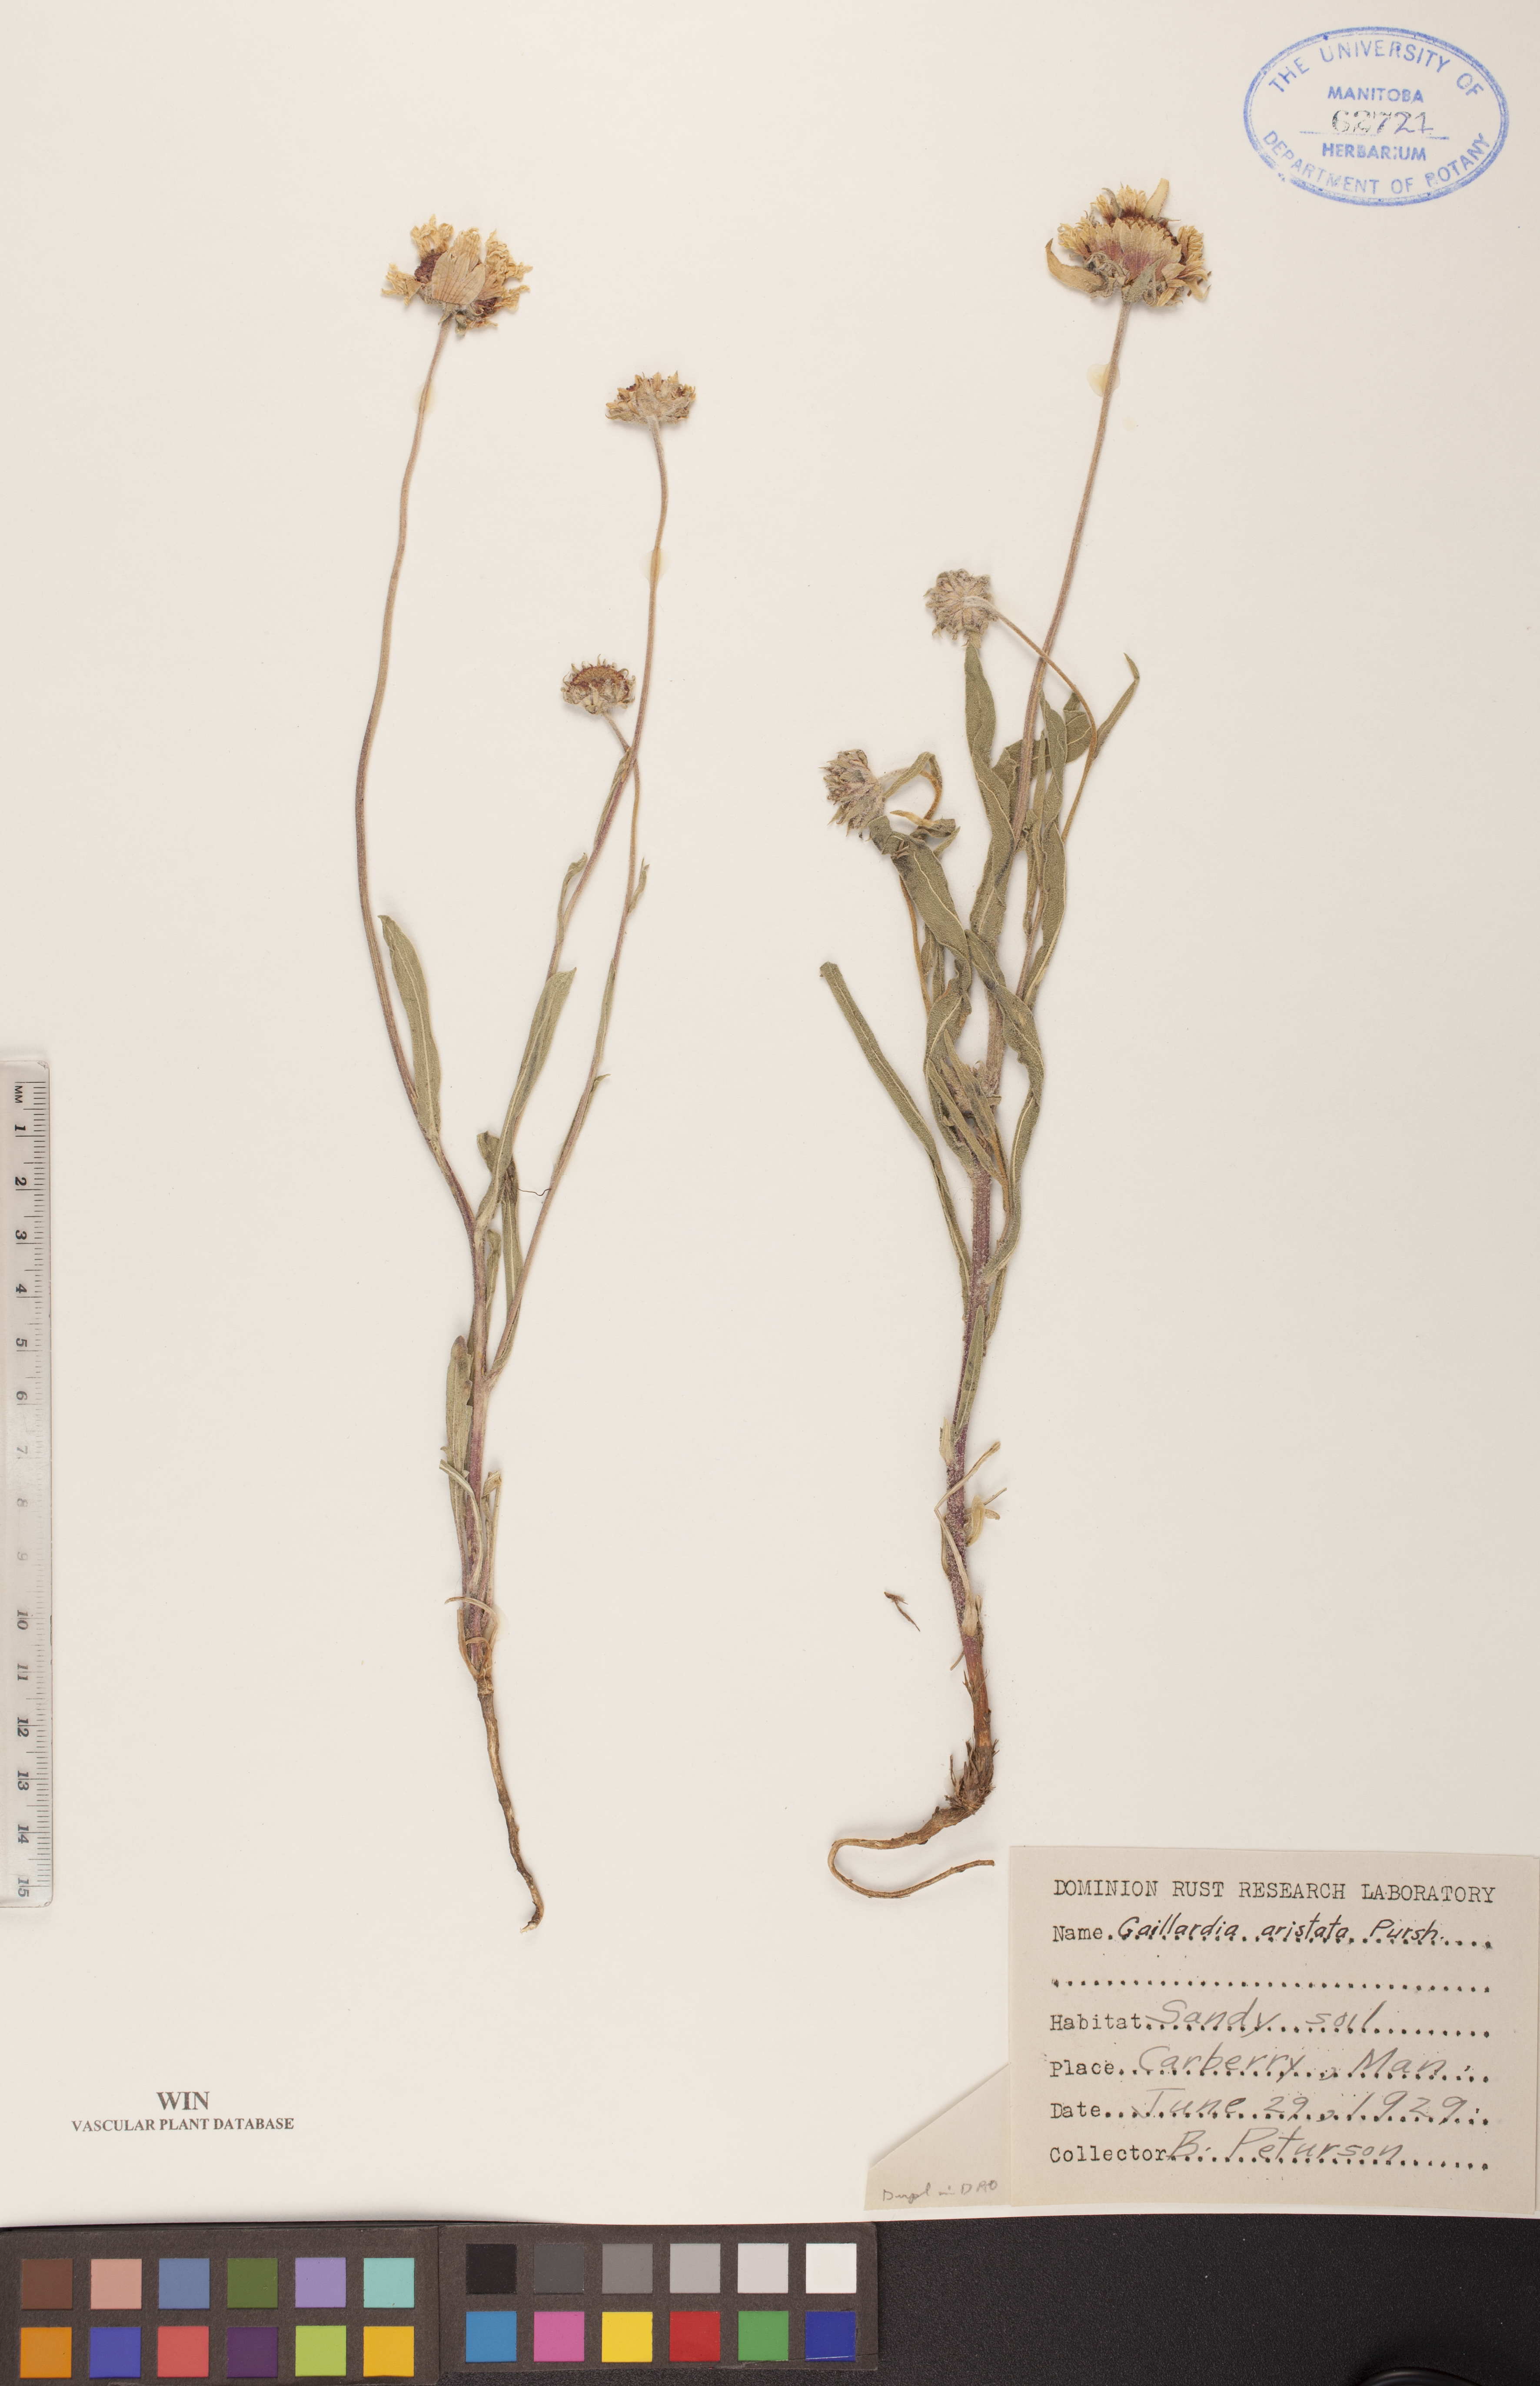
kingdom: Plantae
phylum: Tracheophyta
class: Magnoliopsida
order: Asterales
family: Asteraceae
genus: Gaillardia
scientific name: Gaillardia aristata
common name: Blanket-flower
